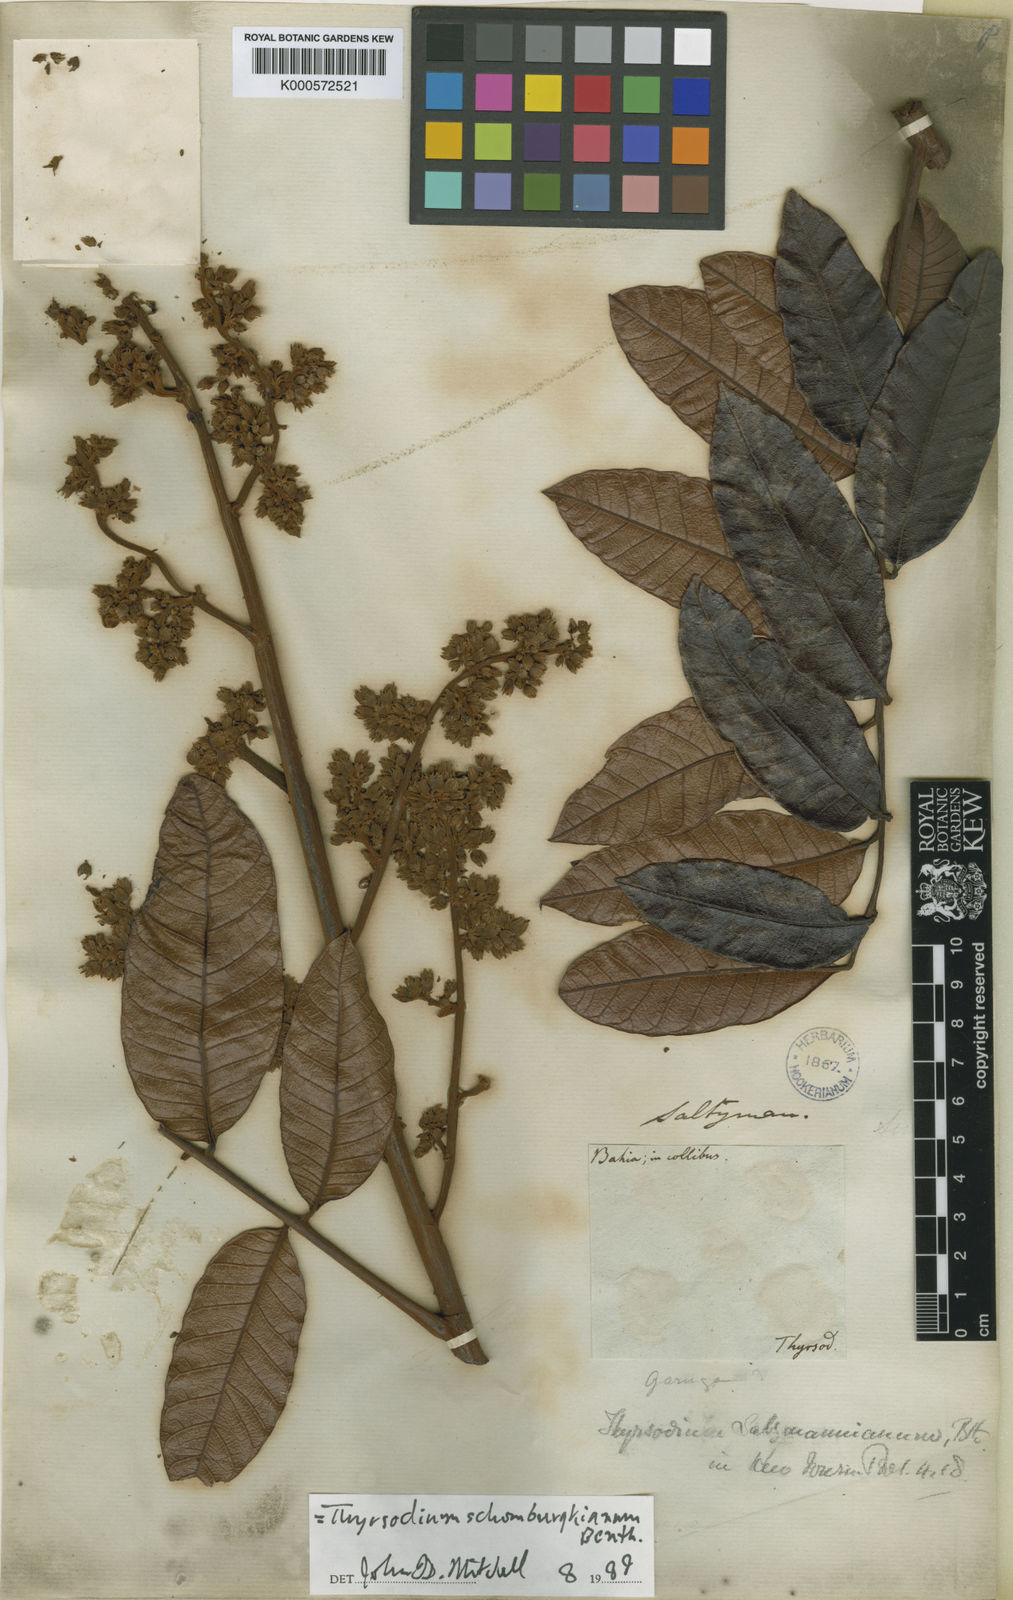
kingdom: Plantae
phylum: Tracheophyta
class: Magnoliopsida
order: Sapindales
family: Anacardiaceae
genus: Thyrsodium
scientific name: Thyrsodium spruceanum
